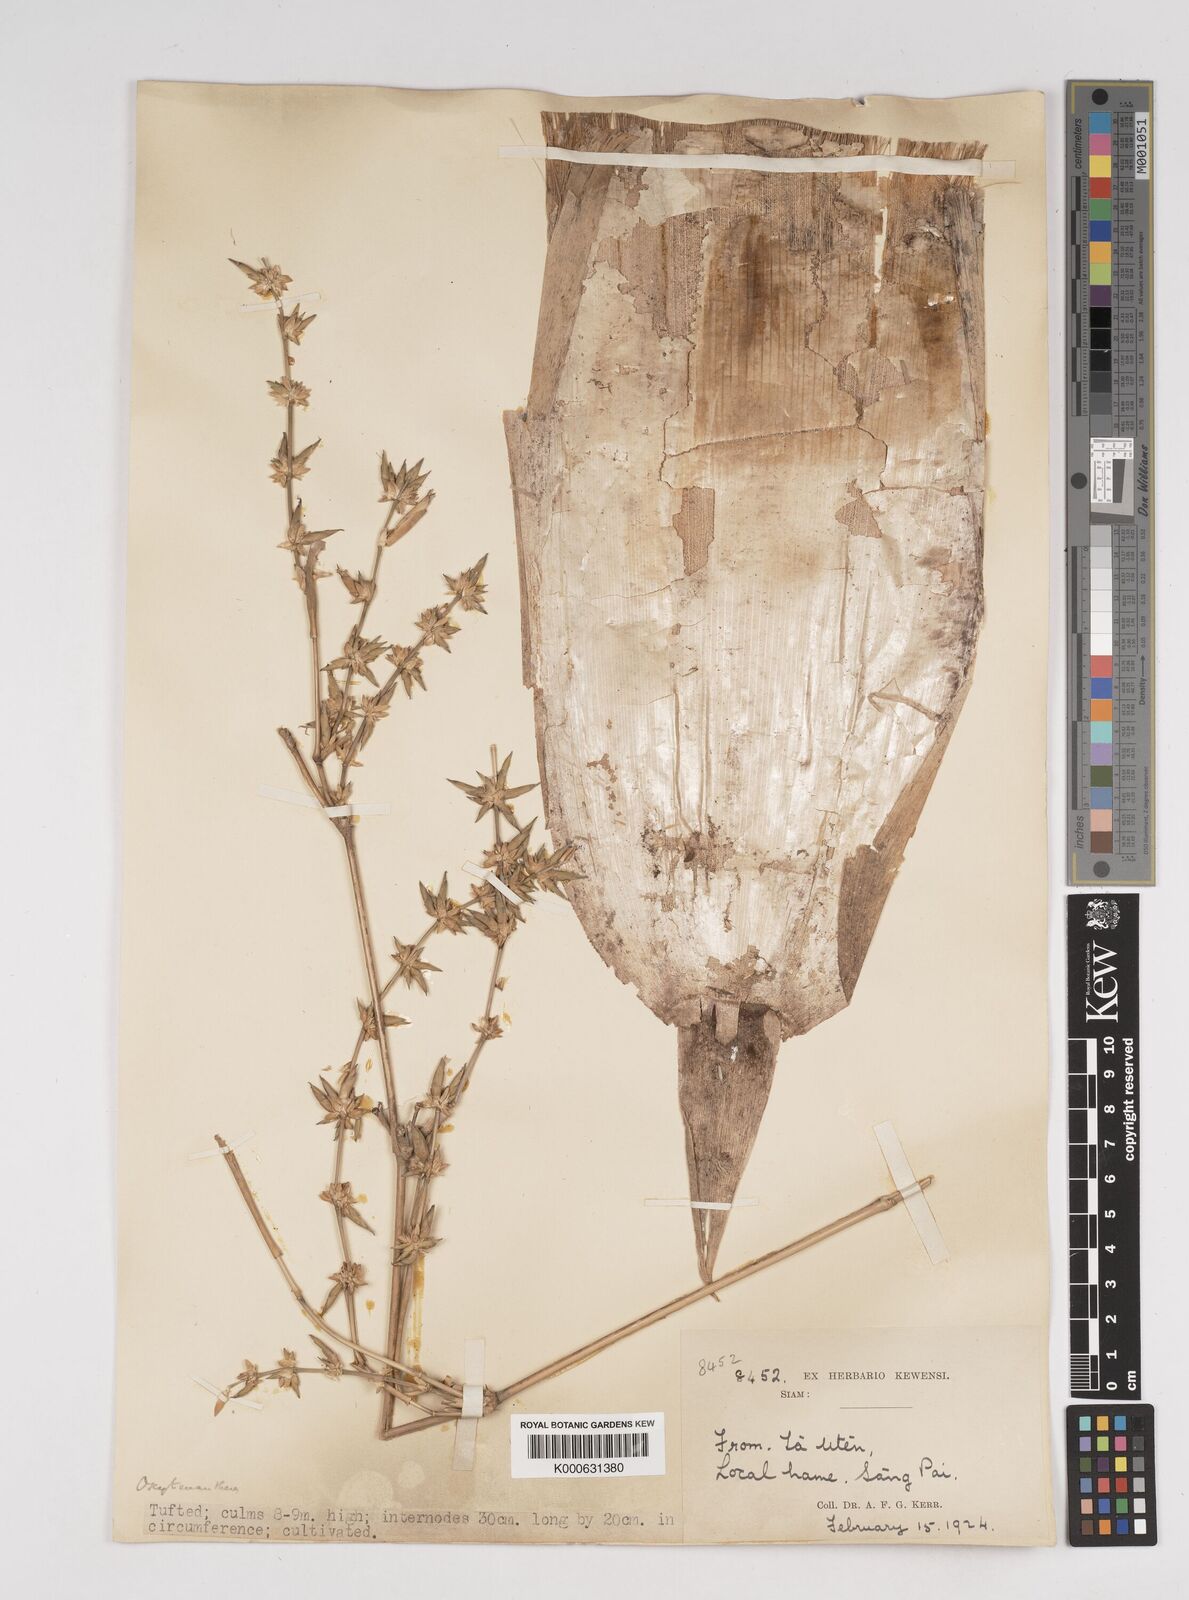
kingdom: Plantae
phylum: Tracheophyta
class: Liliopsida
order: Poales
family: Poaceae
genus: Dendrocalamus
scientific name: Dendrocalamus
